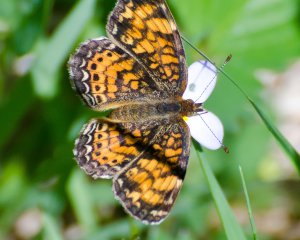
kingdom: Animalia
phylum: Arthropoda
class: Insecta
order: Lepidoptera
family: Nymphalidae
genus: Phyciodes
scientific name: Phyciodes tharos
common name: Pearl Crescent
